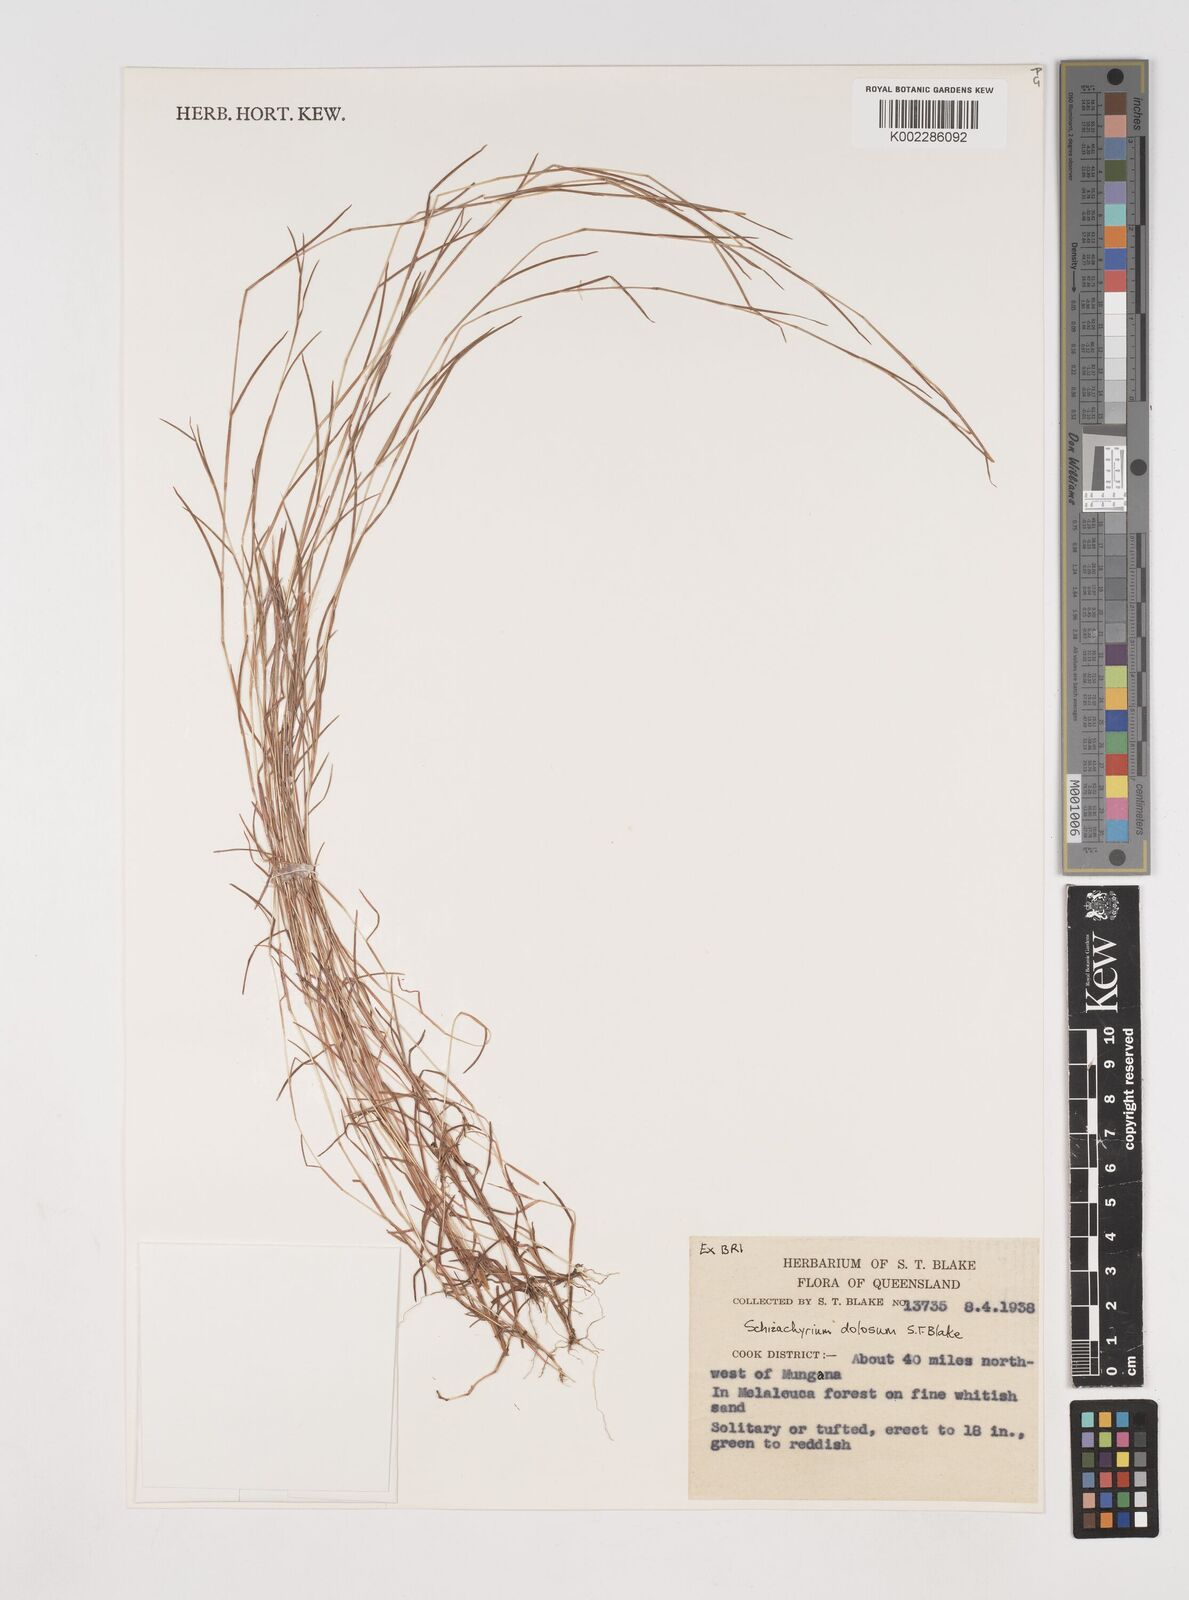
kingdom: Plantae
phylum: Tracheophyta
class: Liliopsida
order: Poales
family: Poaceae
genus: Schizachyrium
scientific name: Schizachyrium dolosum
